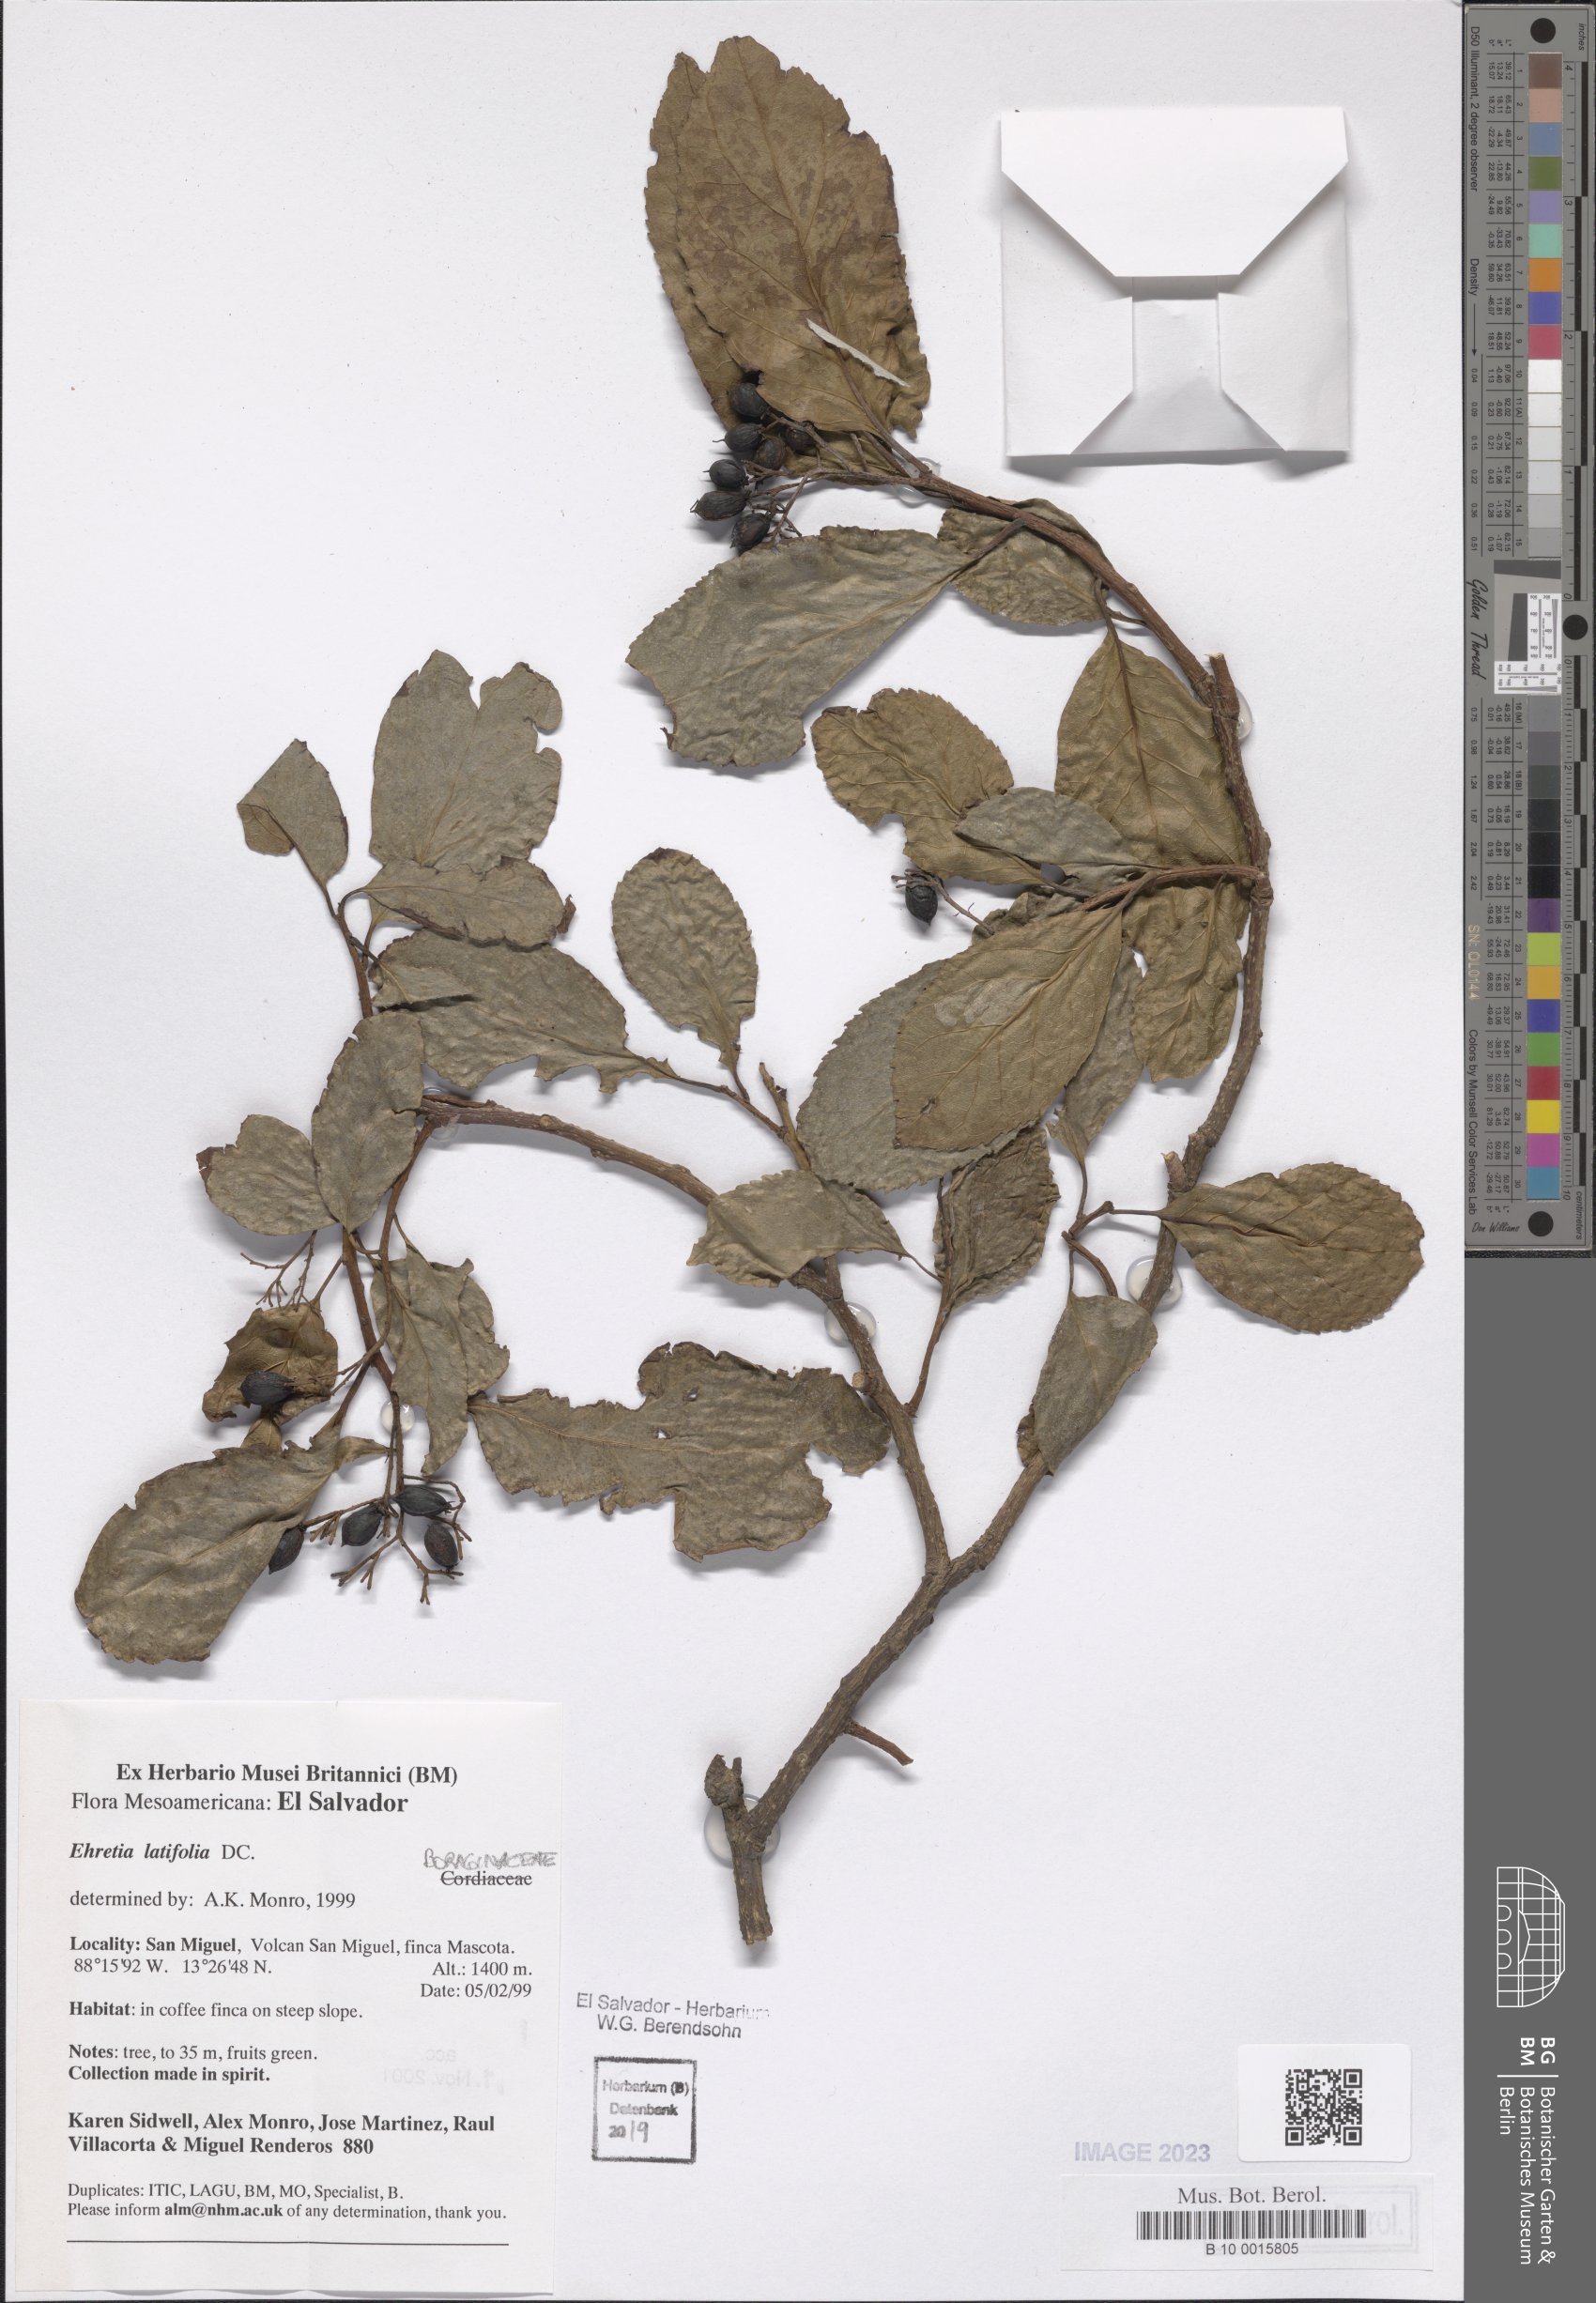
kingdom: Plantae
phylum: Tracheophyta
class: Magnoliopsida
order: Boraginales
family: Ehretiaceae
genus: Ehretia
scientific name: Ehretia latifolia
